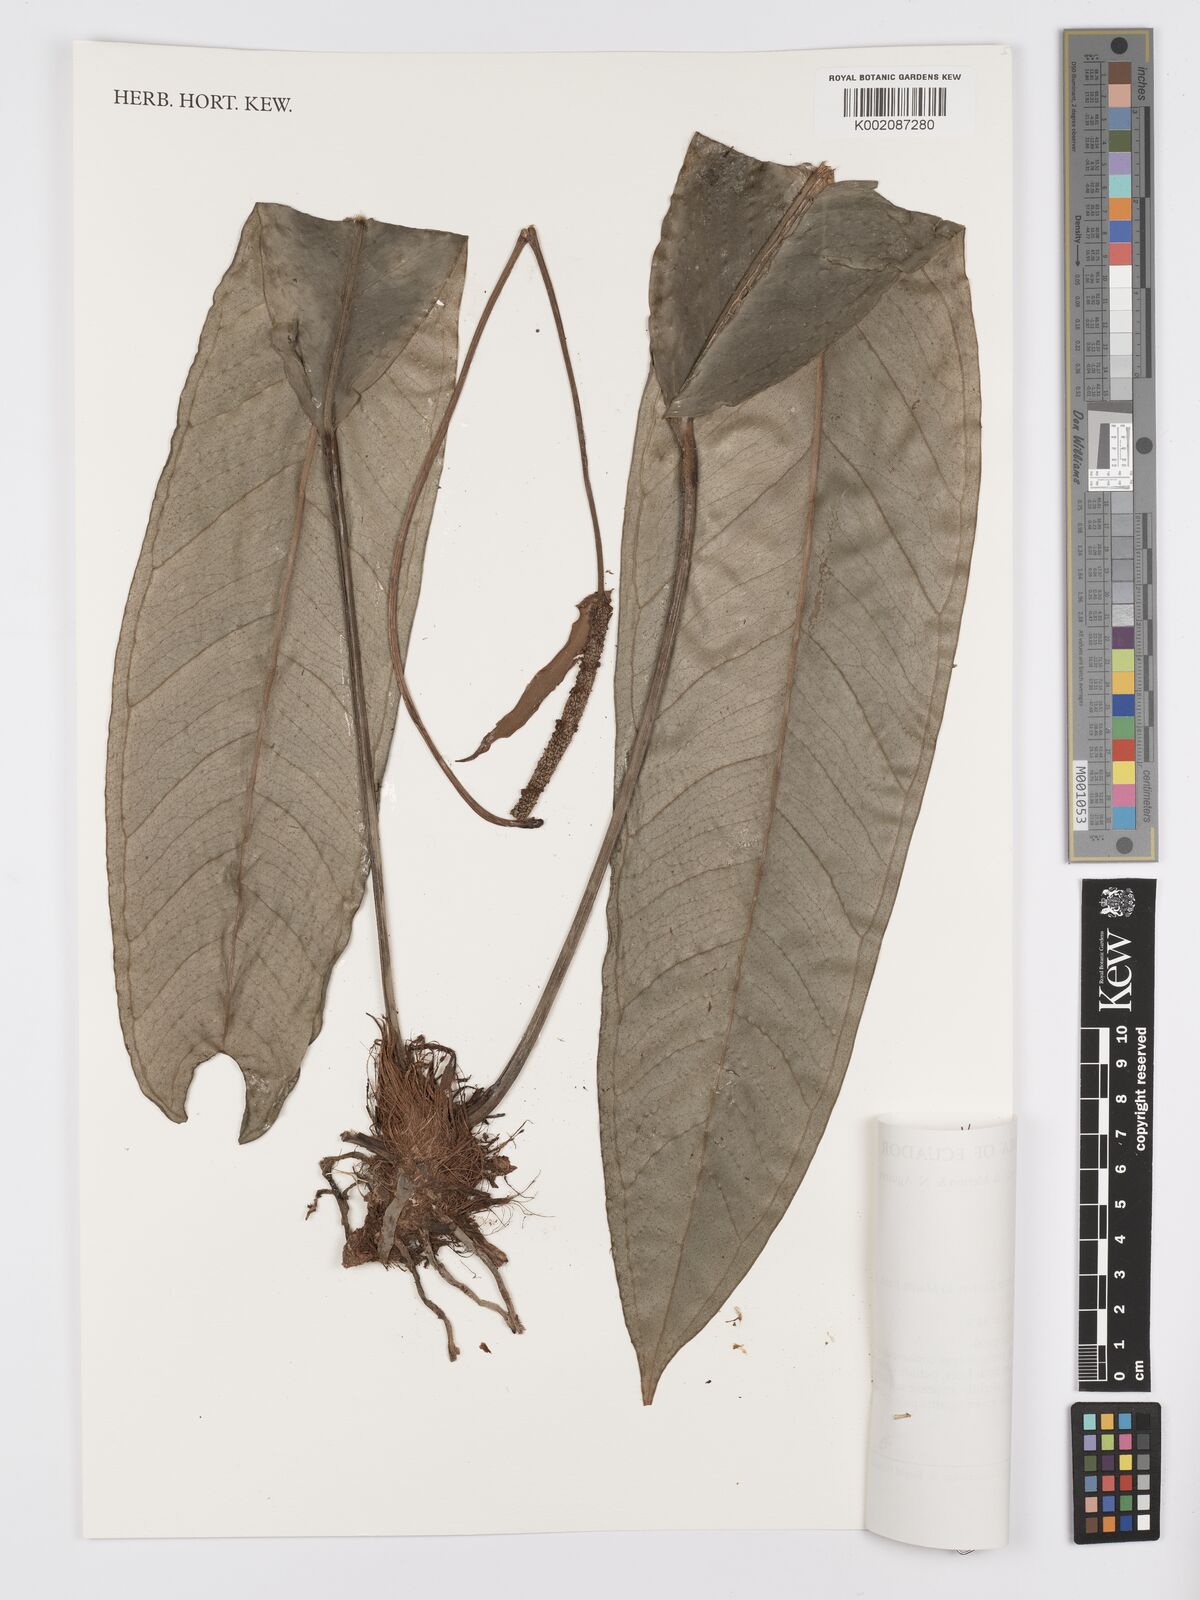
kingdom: Plantae
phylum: Tracheophyta
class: Liliopsida
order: Alismatales
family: Araceae
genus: Anthurium
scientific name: Anthurium
